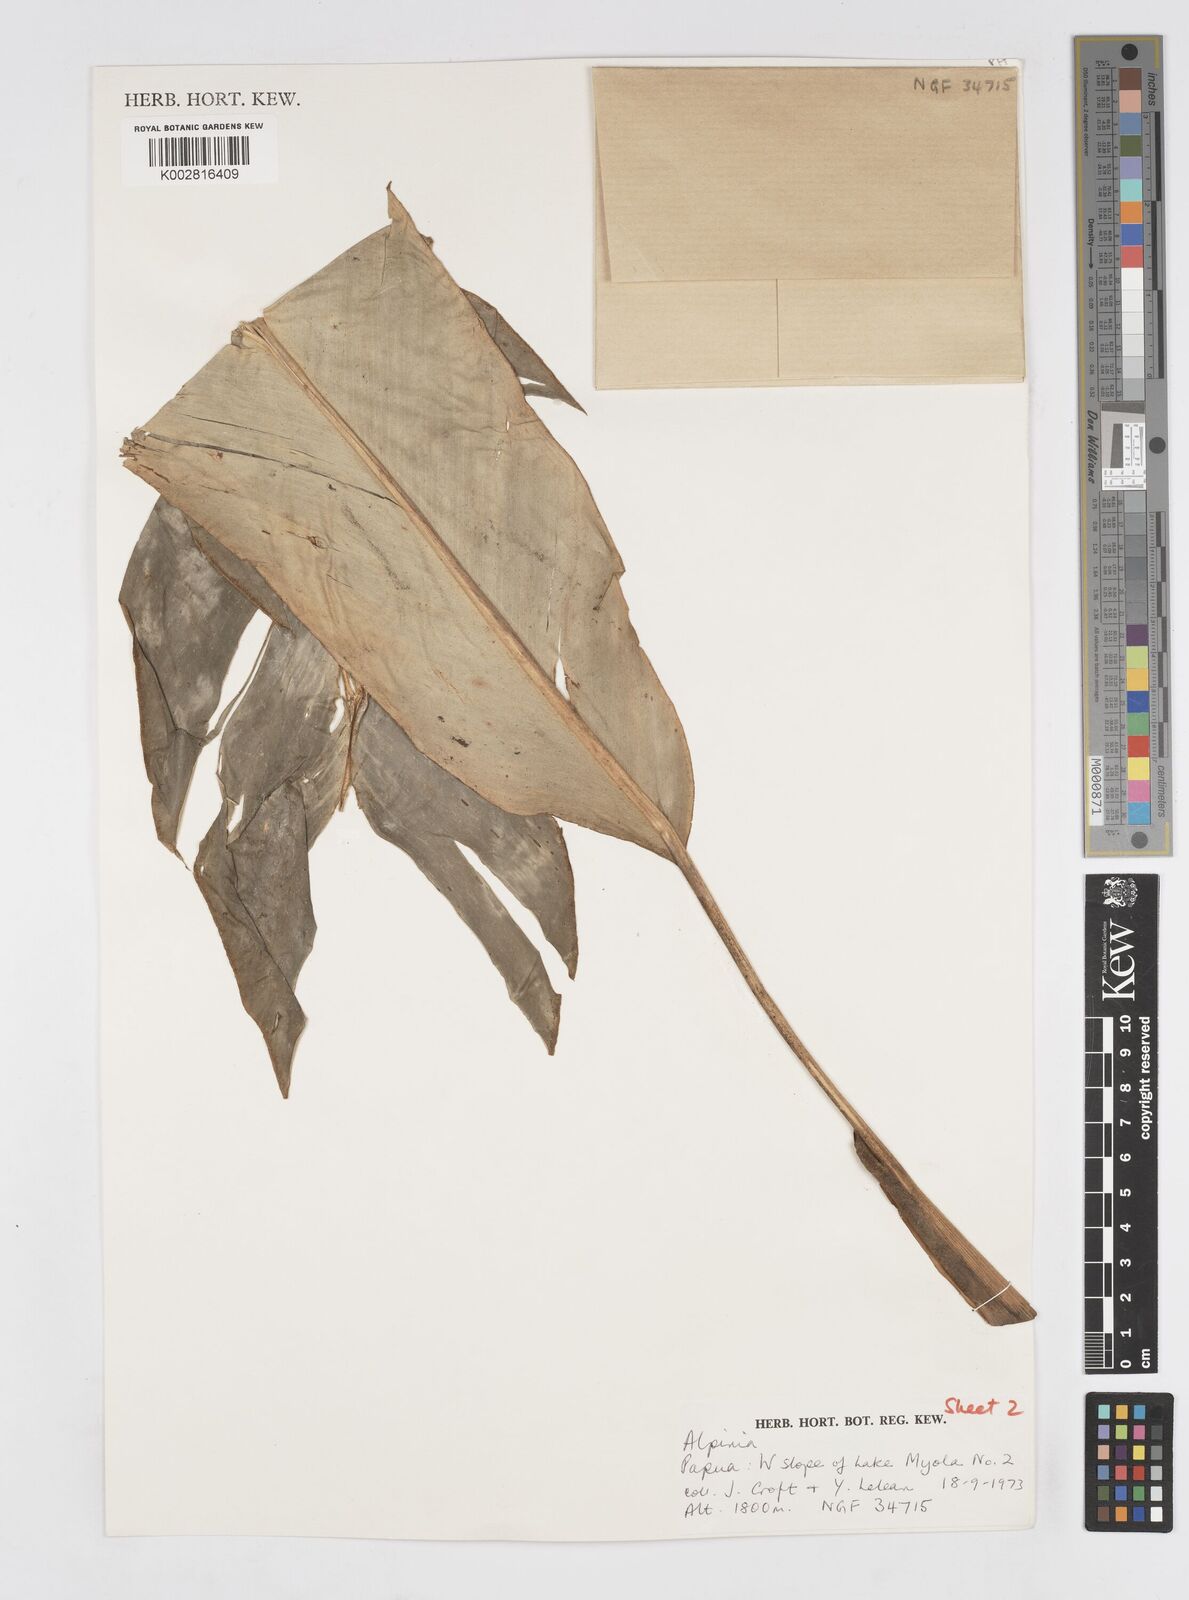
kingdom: Plantae
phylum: Tracheophyta
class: Liliopsida
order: Zingiberales
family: Zingiberaceae
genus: Alpinia
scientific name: Alpinia stenobracteolata
